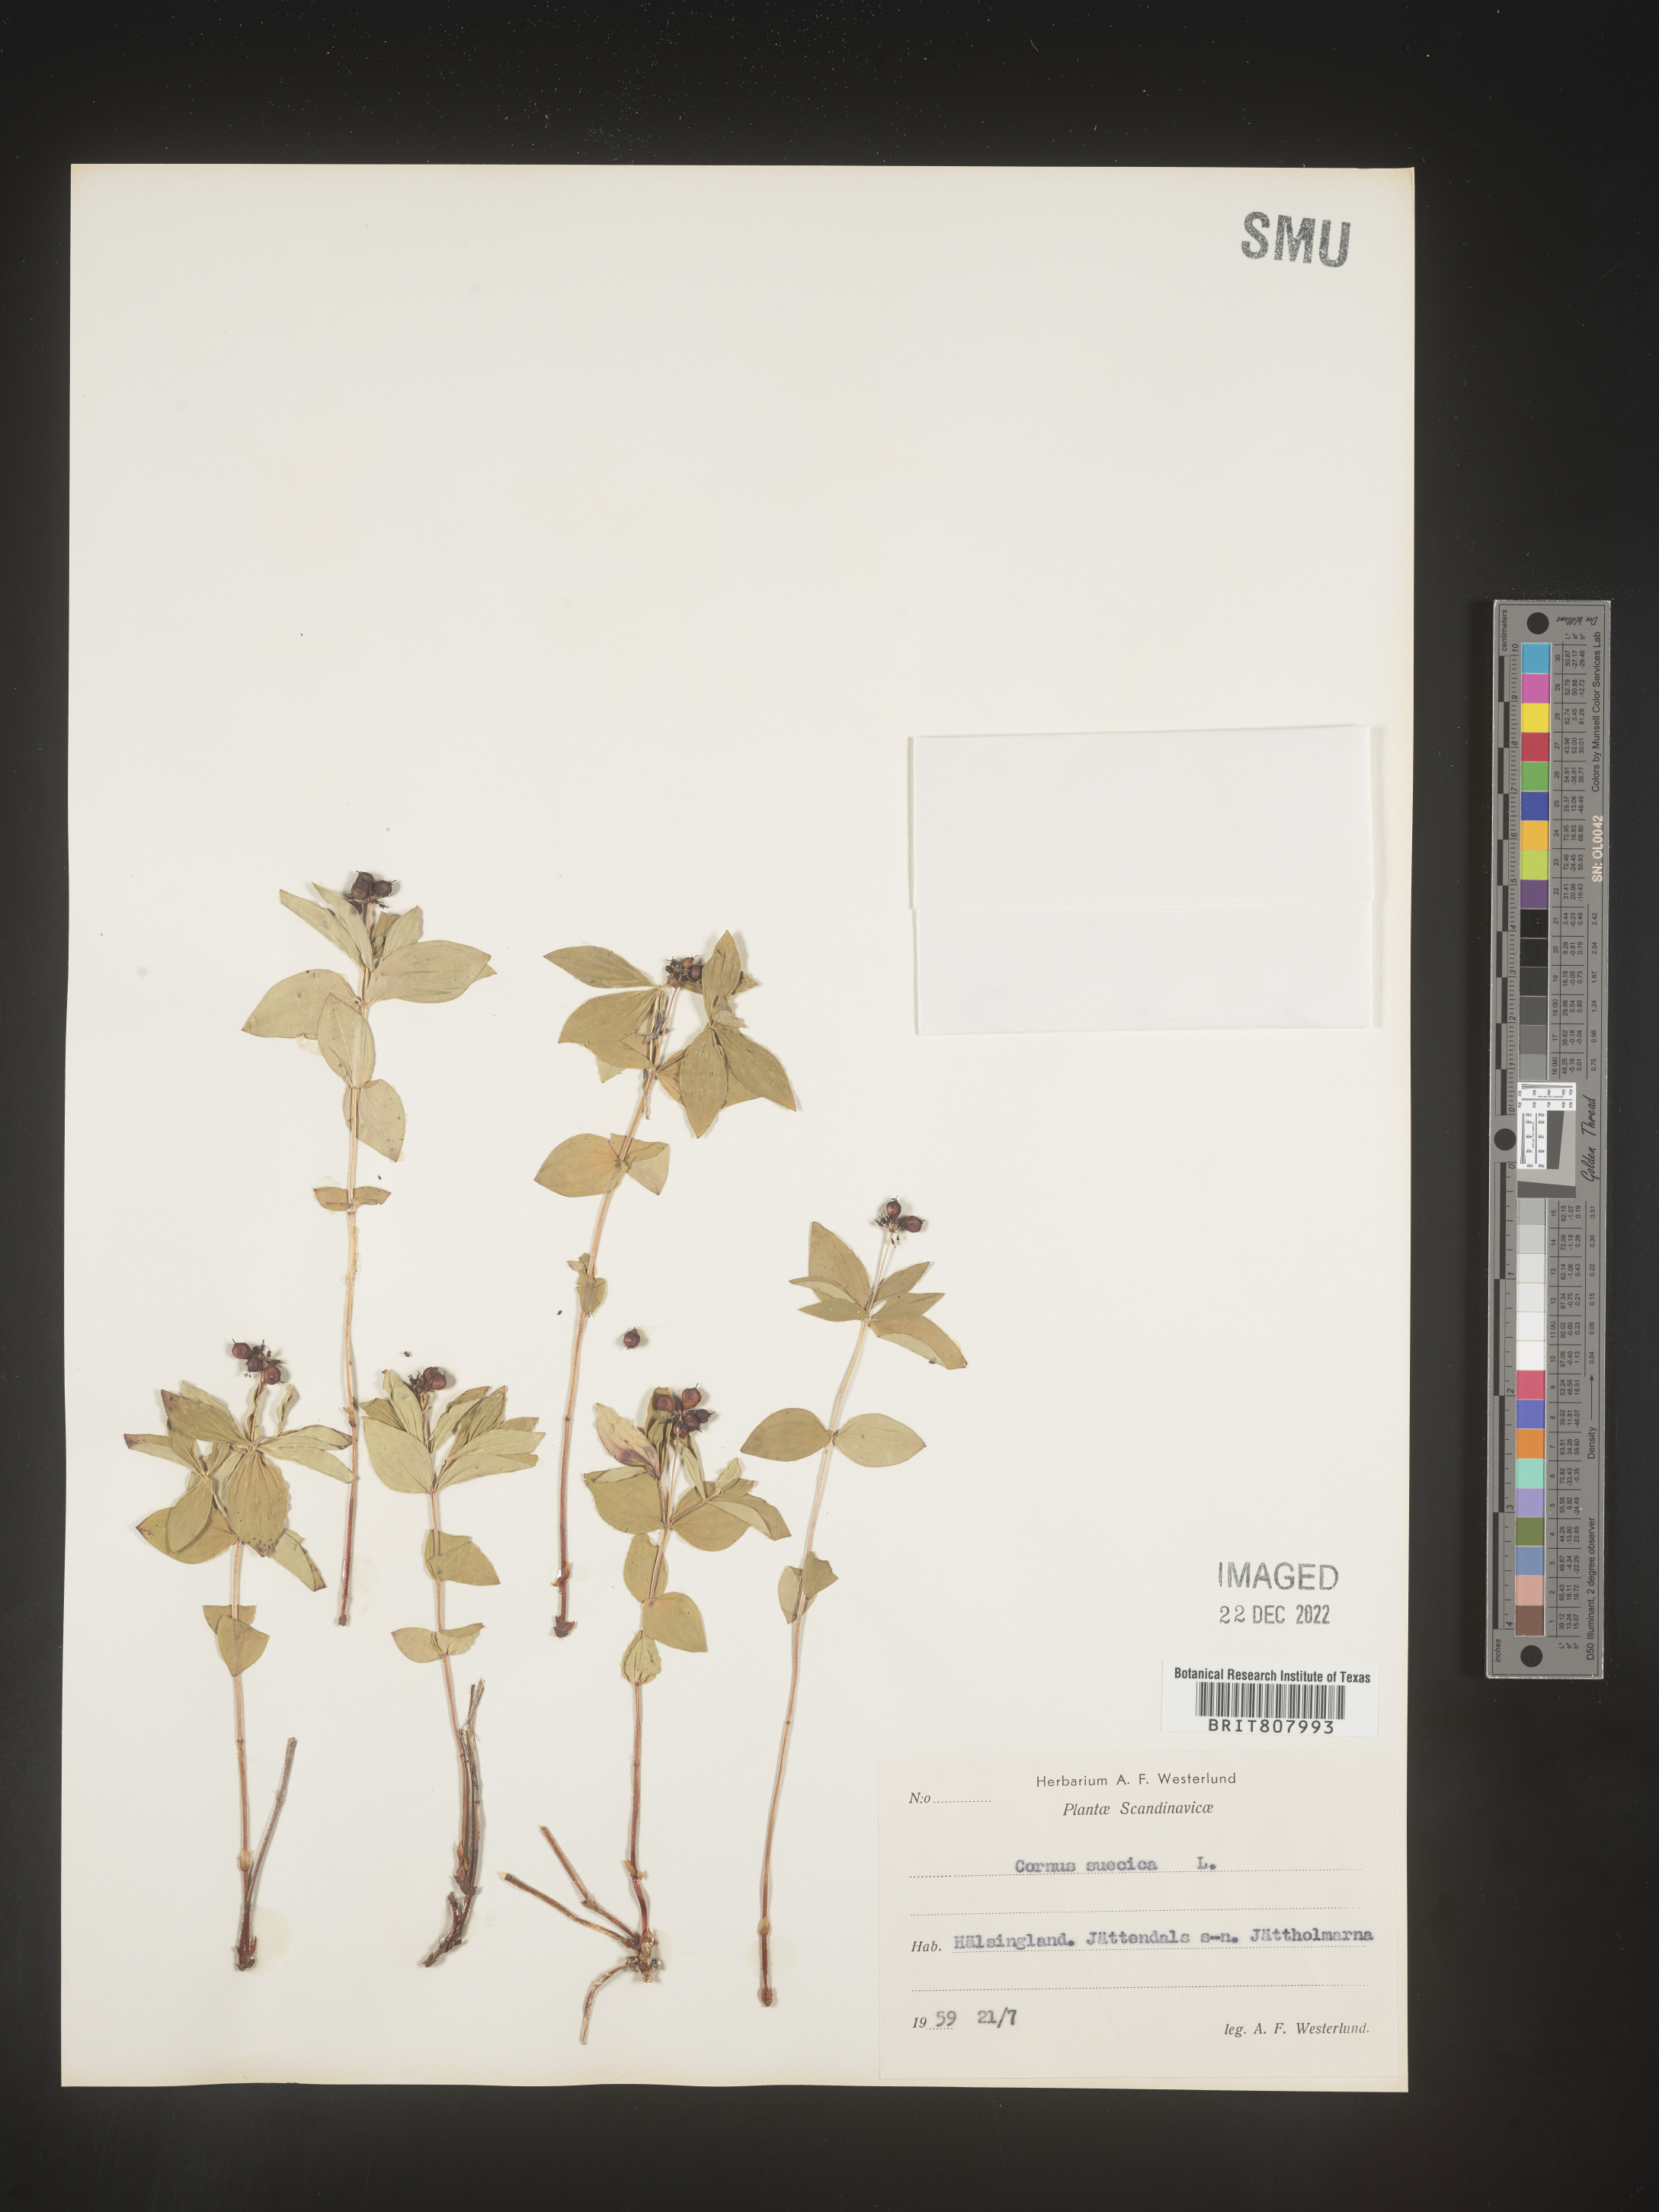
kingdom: Plantae
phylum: Tracheophyta
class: Magnoliopsida
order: Cornales
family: Cornaceae
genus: Cornus
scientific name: Cornus
